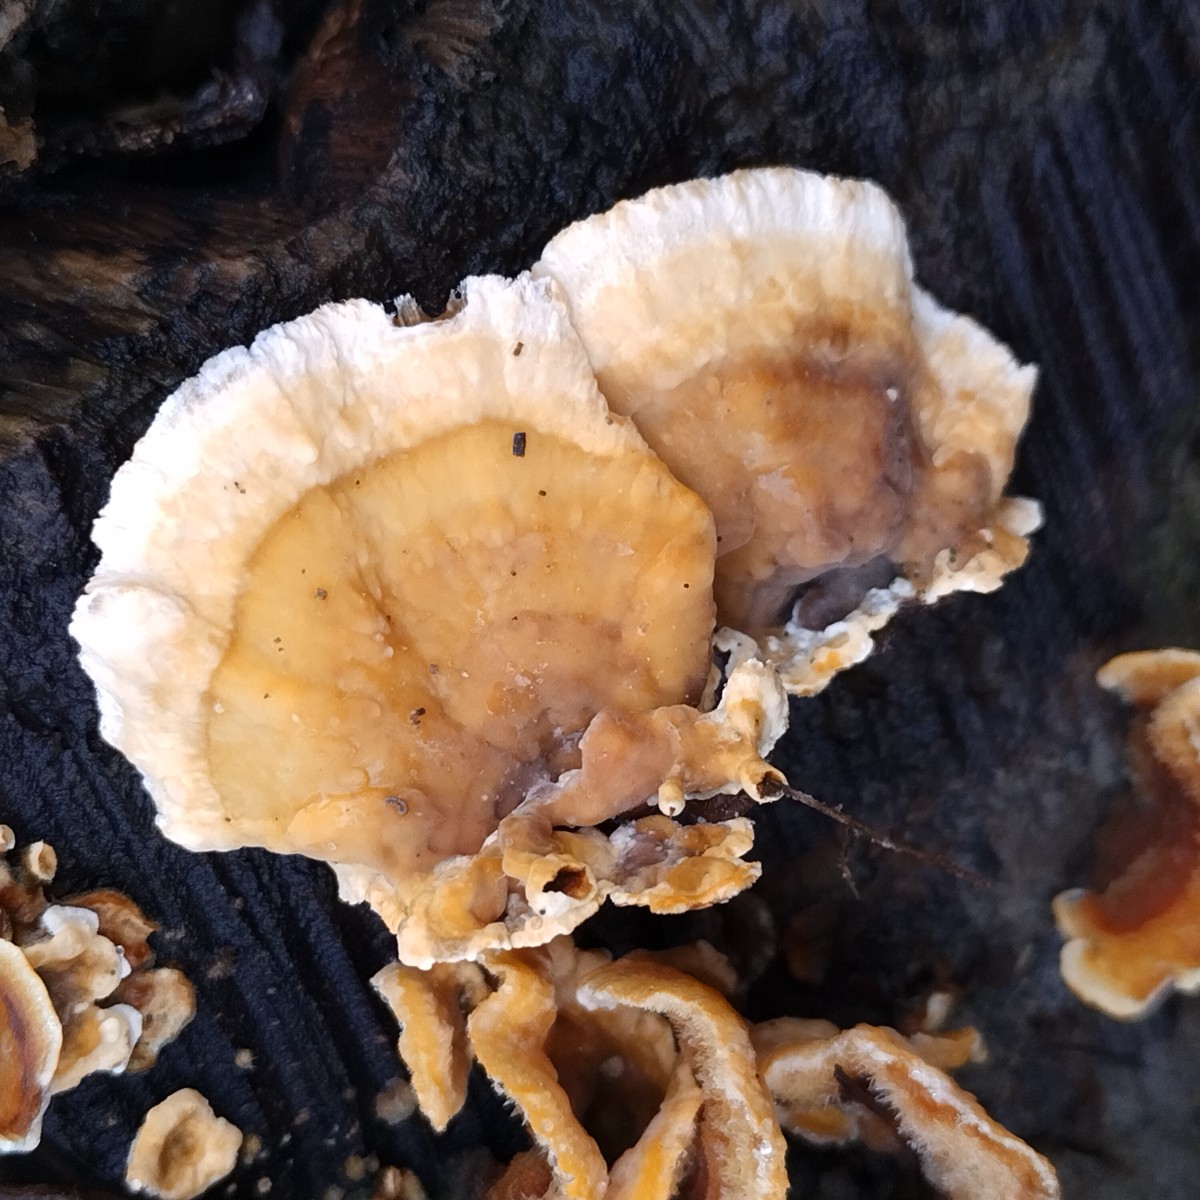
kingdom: Fungi
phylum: Basidiomycota
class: Agaricomycetes
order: Russulales
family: Stereaceae
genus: Stereum
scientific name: Stereum subtomentosum
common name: smuk lædersvamp
